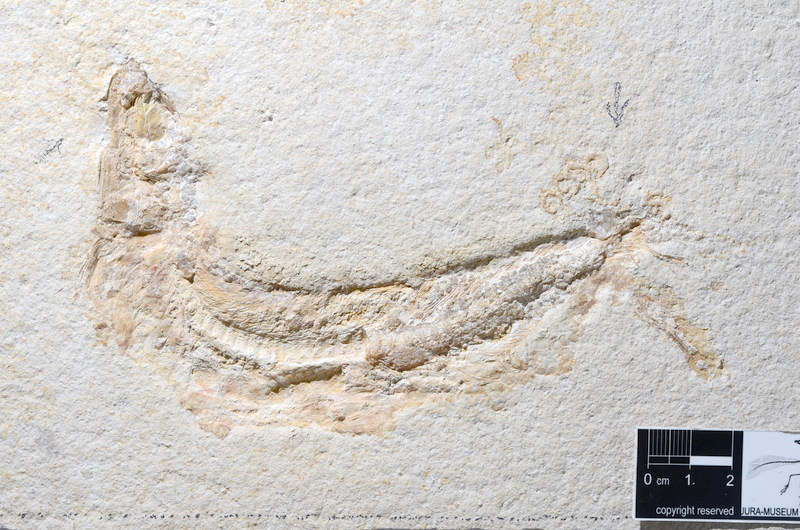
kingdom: Animalia
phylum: Chordata
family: Ascalaboidae
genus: Tharsis
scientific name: Tharsis dubius
